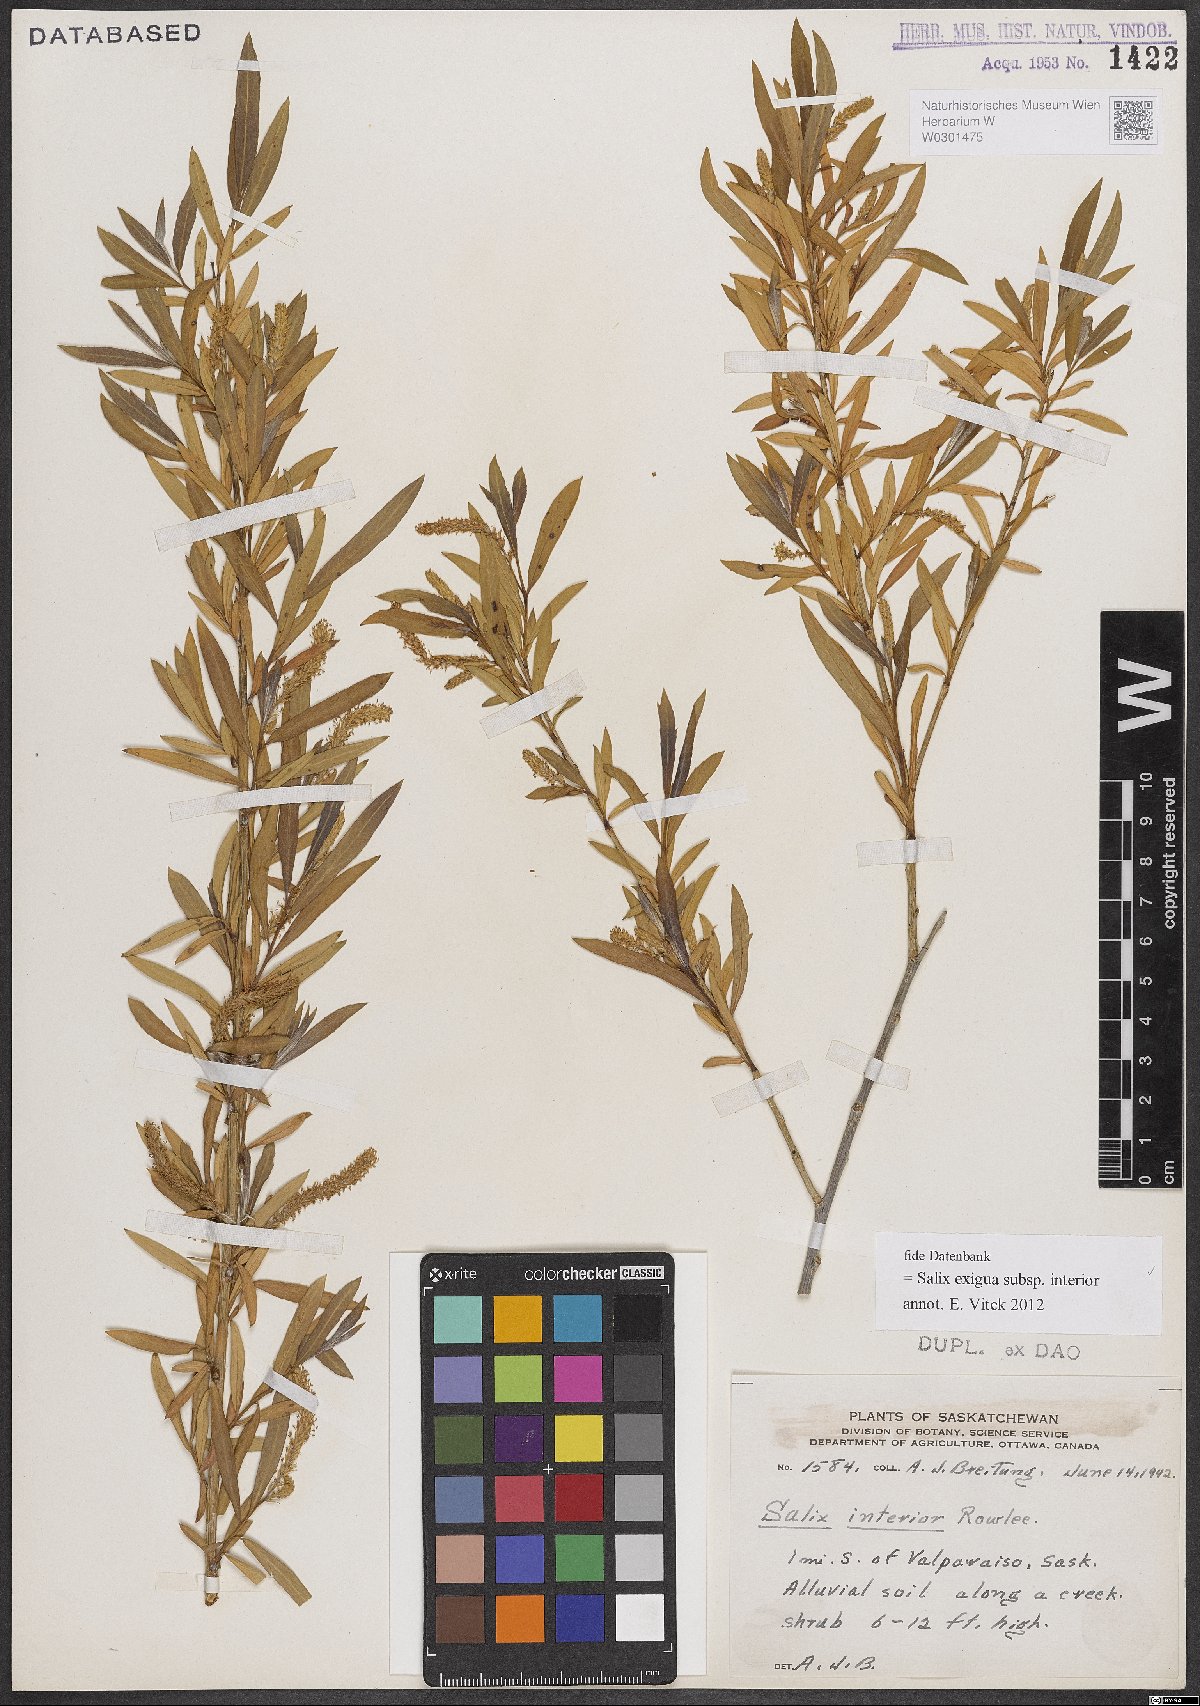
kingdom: Plantae
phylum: Tracheophyta
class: Magnoliopsida
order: Malpighiales
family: Salicaceae
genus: Salix
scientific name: Salix interior
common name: Sandbar willow
